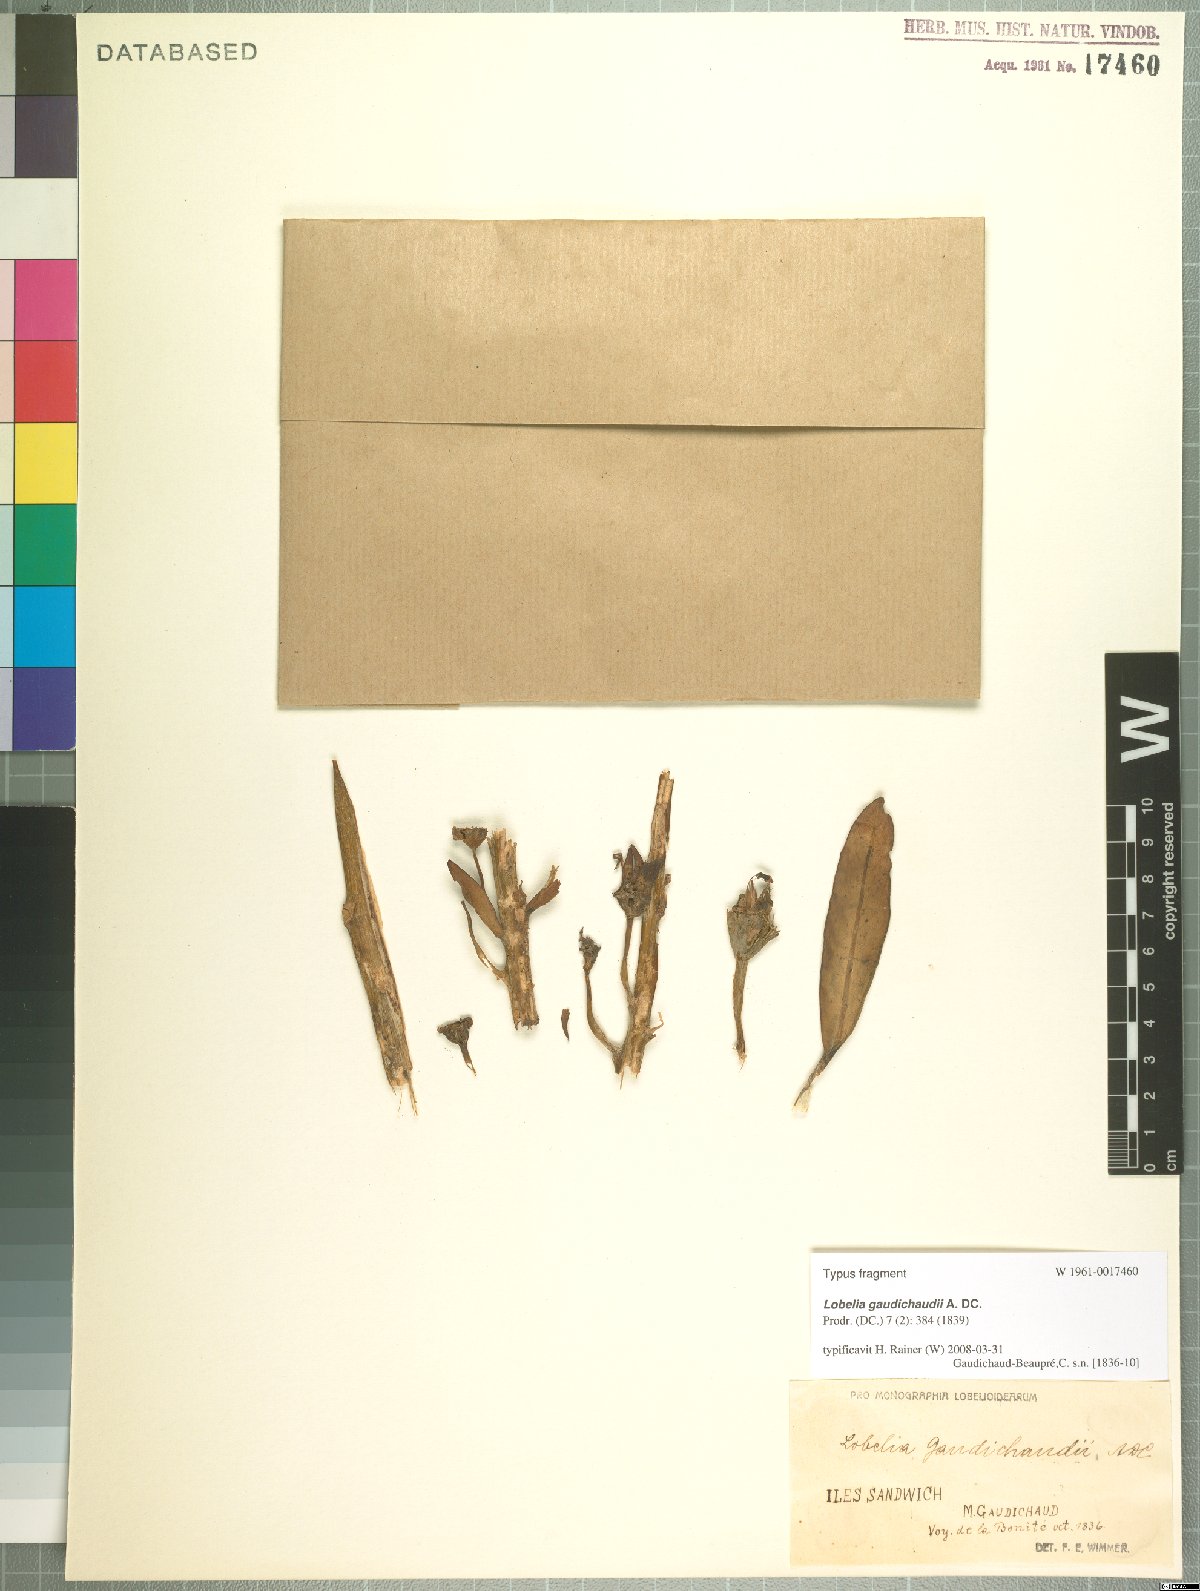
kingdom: Plantae
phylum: Tracheophyta
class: Magnoliopsida
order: Asterales
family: Campanulaceae
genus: Lobelia
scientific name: Lobelia gaudichaudii
